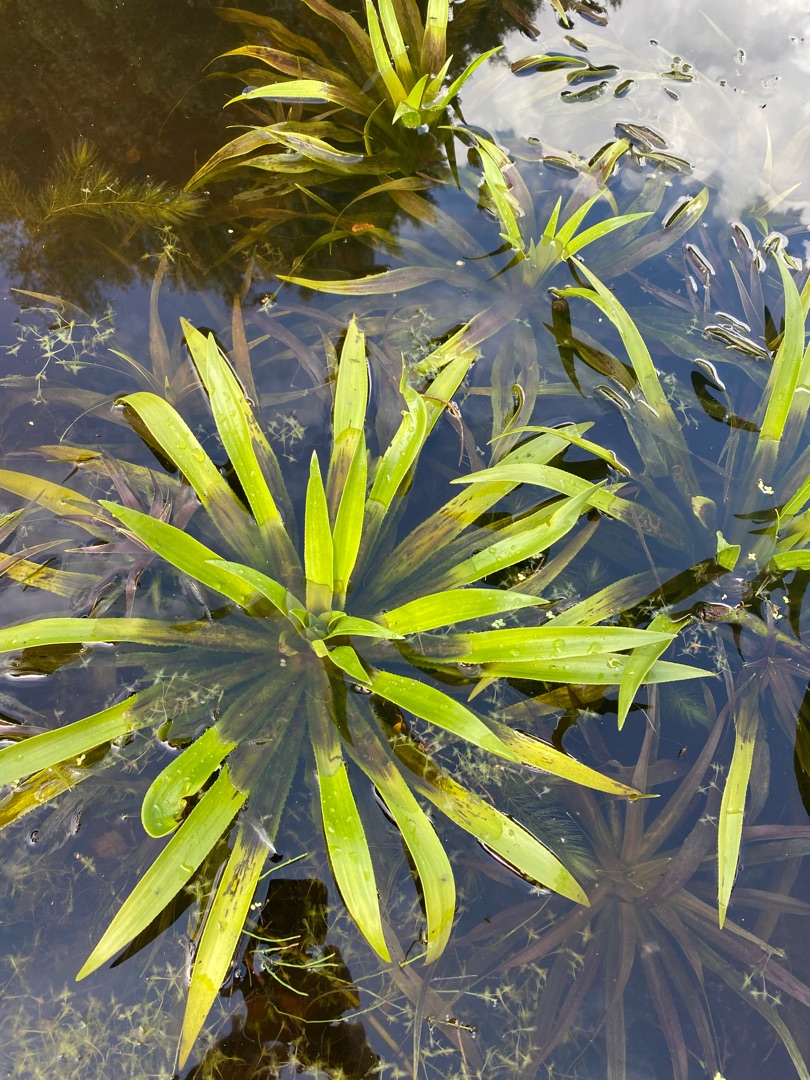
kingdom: Plantae
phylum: Tracheophyta
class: Liliopsida
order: Alismatales
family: Hydrocharitaceae
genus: Stratiotes
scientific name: Stratiotes aloides
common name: Krebseklo
